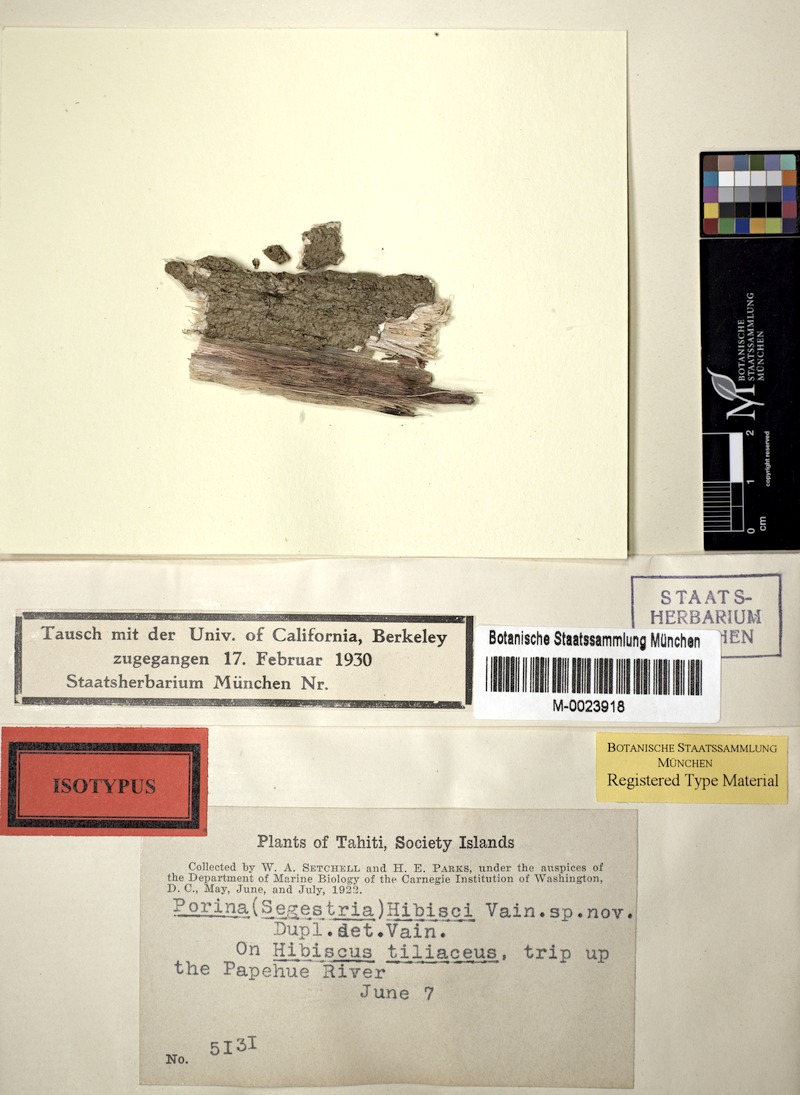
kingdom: Fungi
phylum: Ascomycota
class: Lecanoromycetes
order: Ostropales
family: Porinaceae
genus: Porina
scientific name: Porina hibisci
